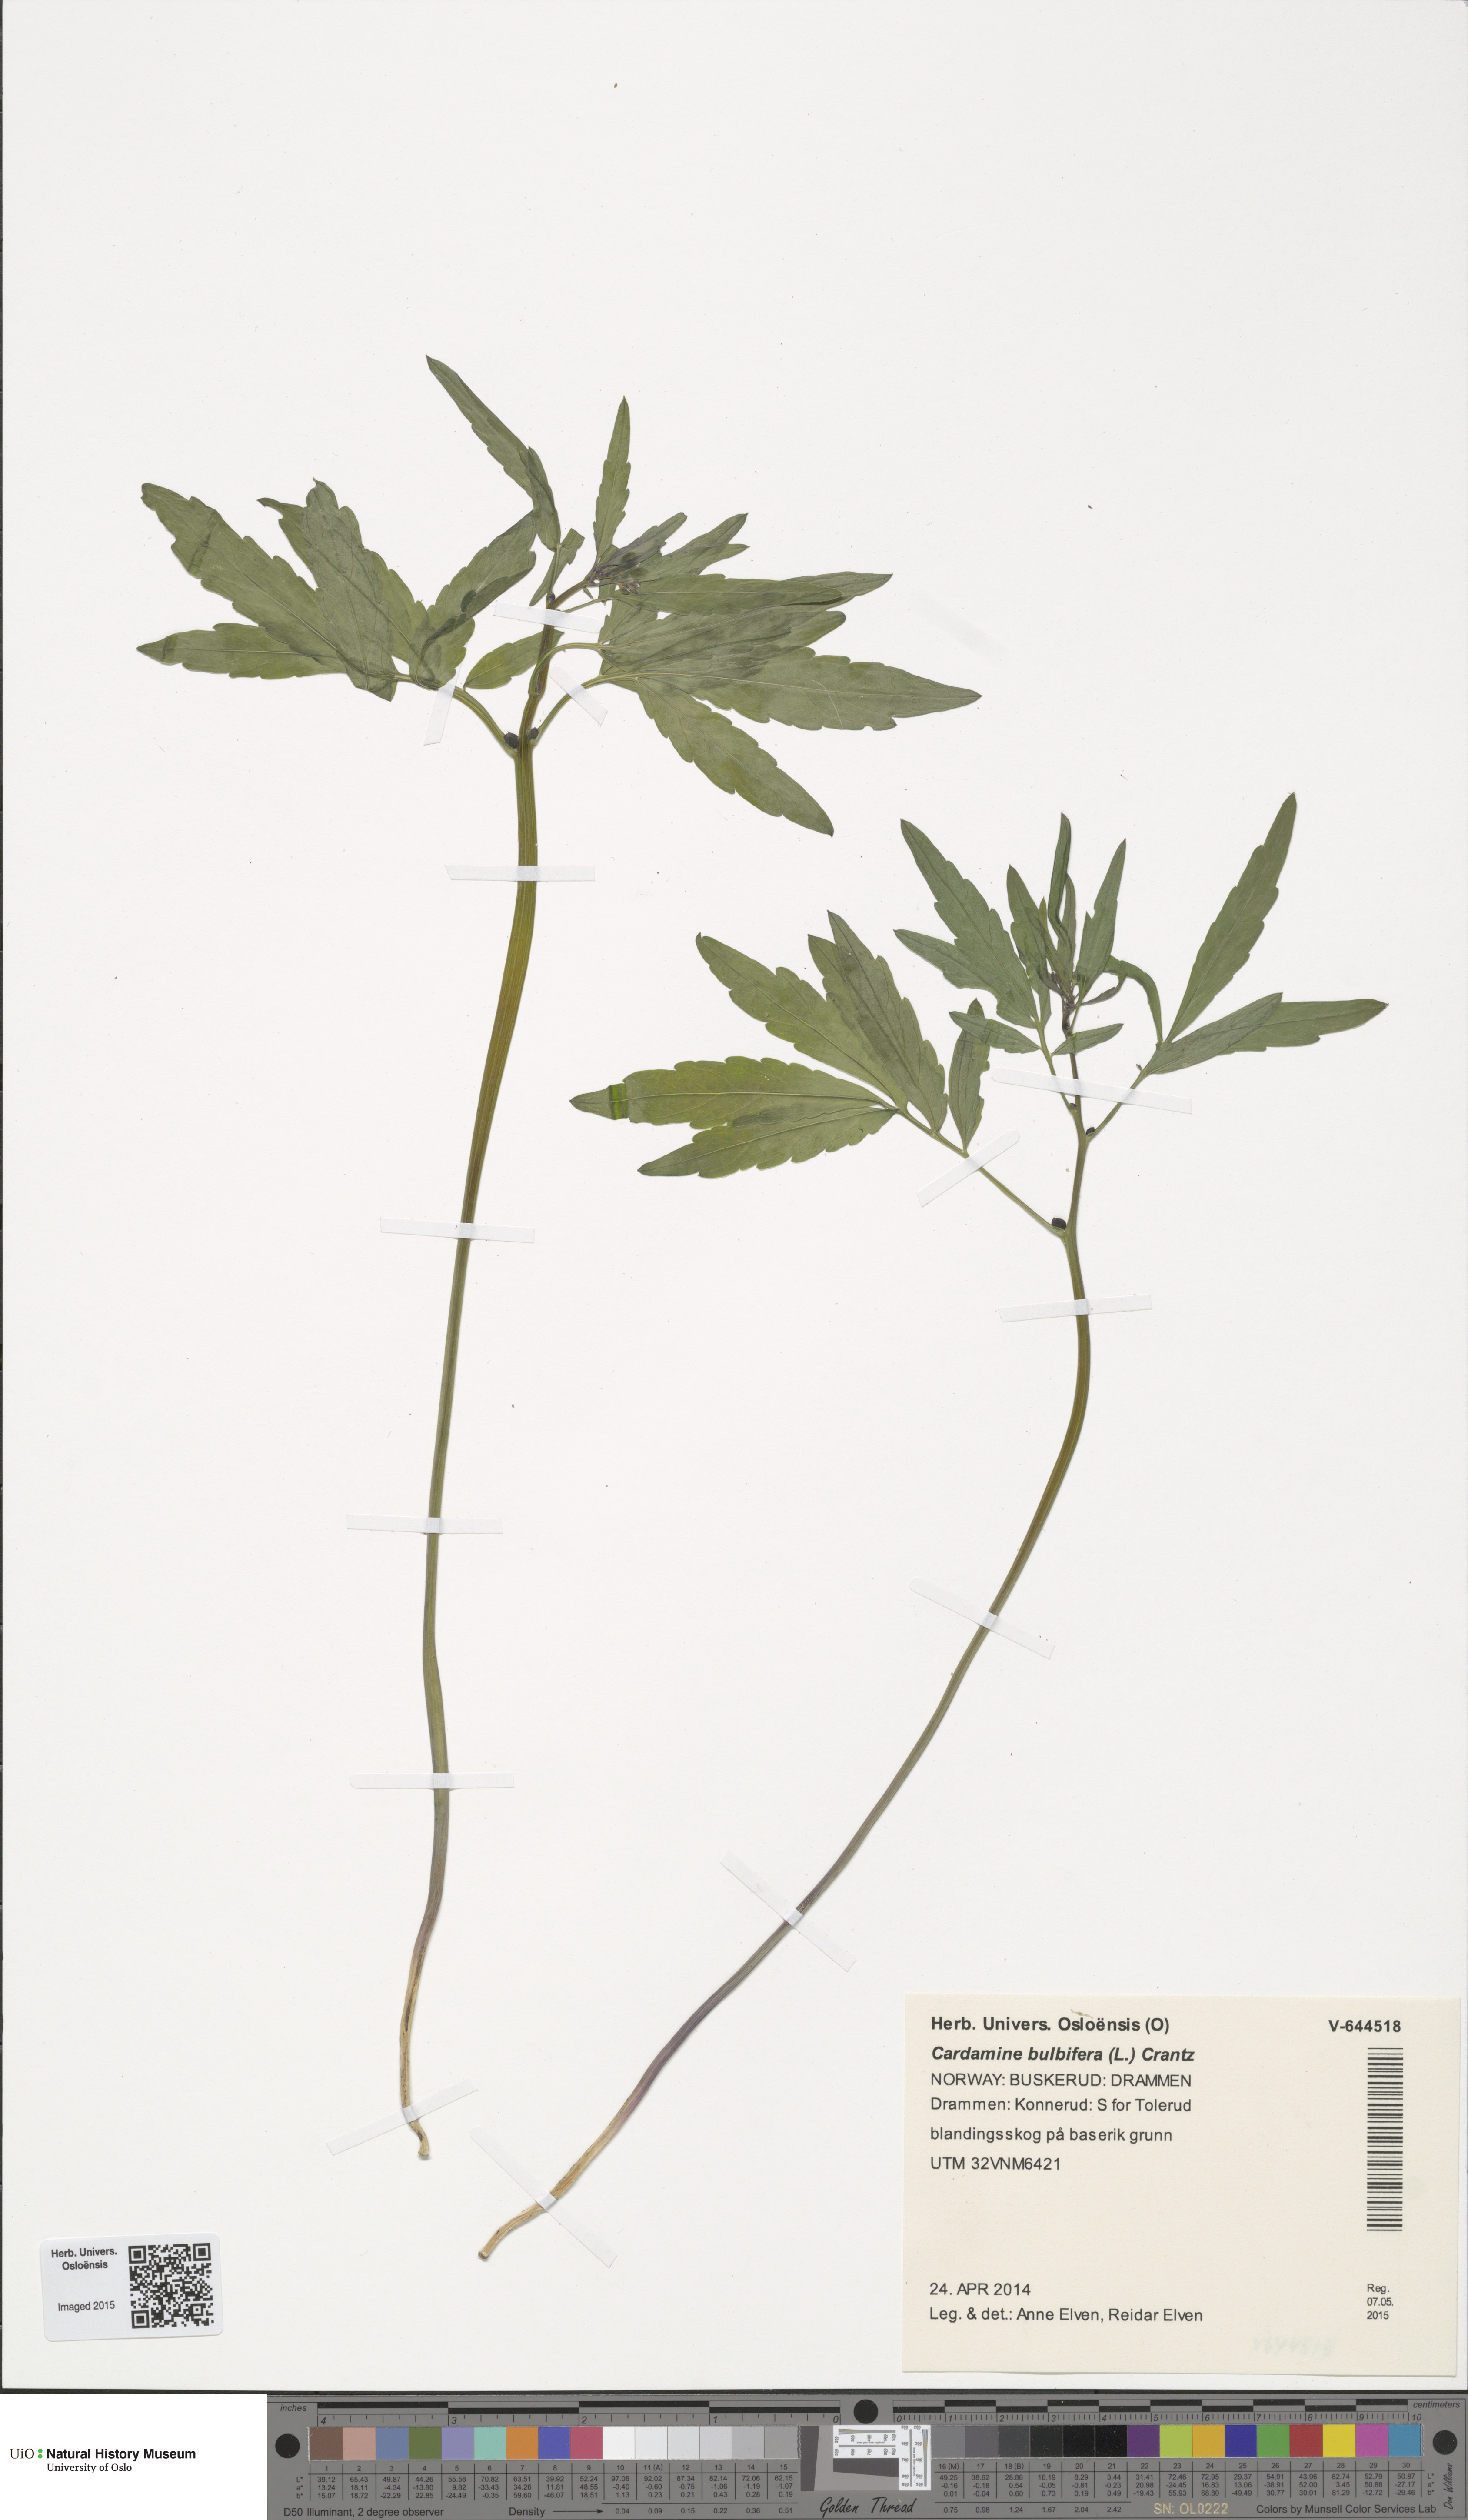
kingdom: Plantae
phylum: Tracheophyta
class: Magnoliopsida
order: Brassicales
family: Brassicaceae
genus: Cardamine
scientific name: Cardamine bulbifera
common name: Coralroot bittercress
